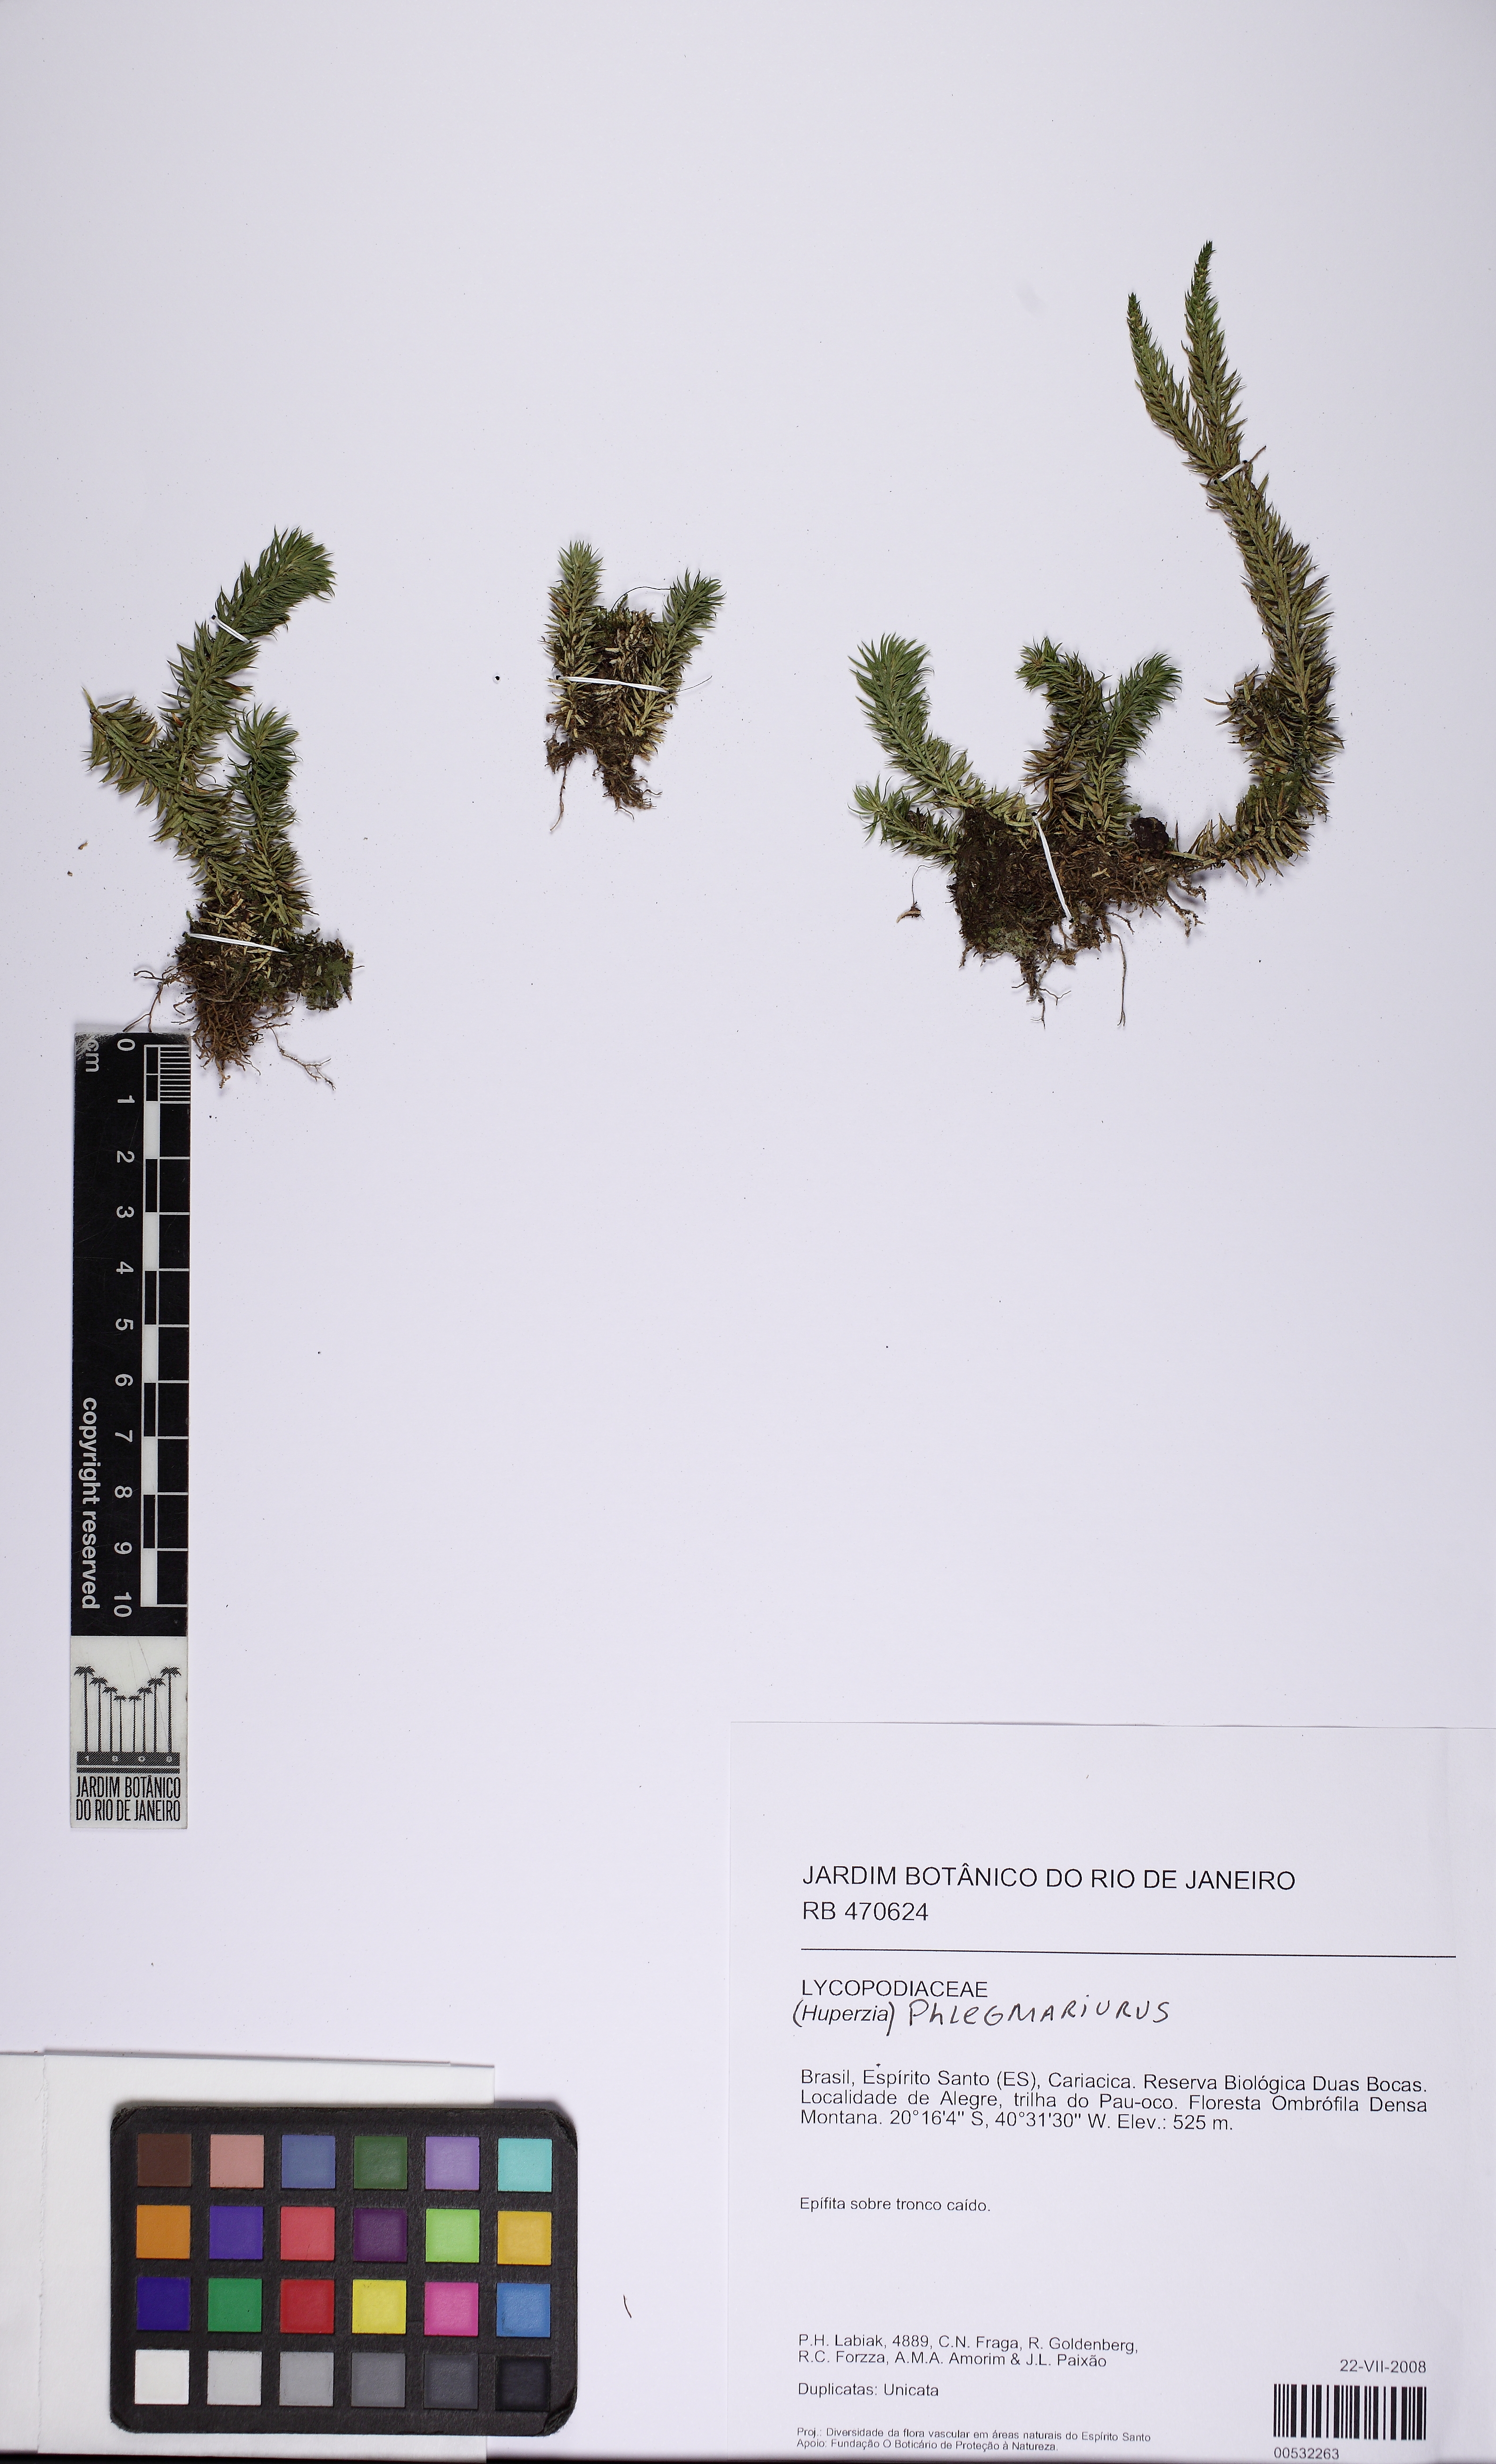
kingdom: Plantae
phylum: Tracheophyta
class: Lycopodiopsida
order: Lycopodiales
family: Lycopodiaceae
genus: Phlegmariurus
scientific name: Phlegmariurus martii
